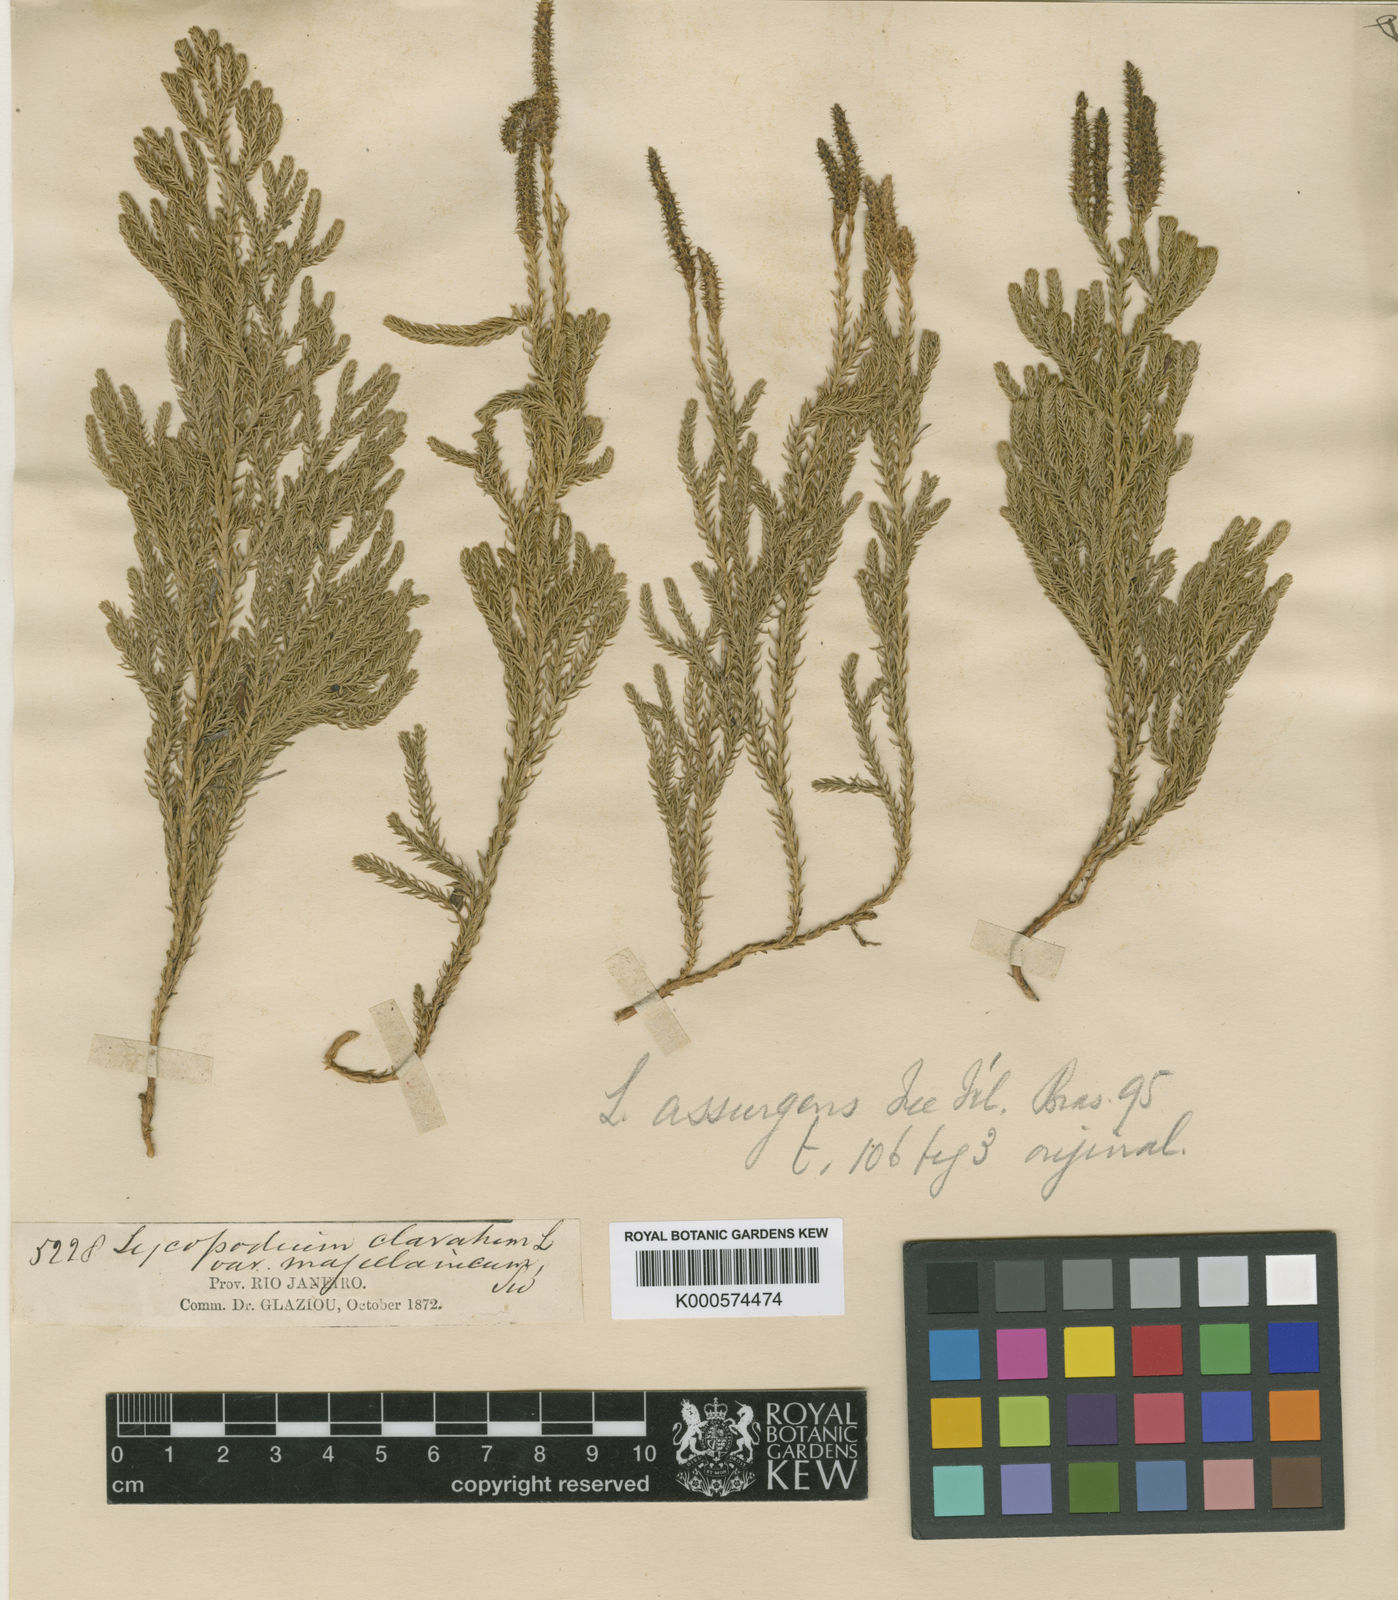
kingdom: Plantae
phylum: Tracheophyta
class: Lycopodiopsida
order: Lycopodiales
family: Lycopodiaceae
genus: Lycopodium
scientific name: Lycopodium
